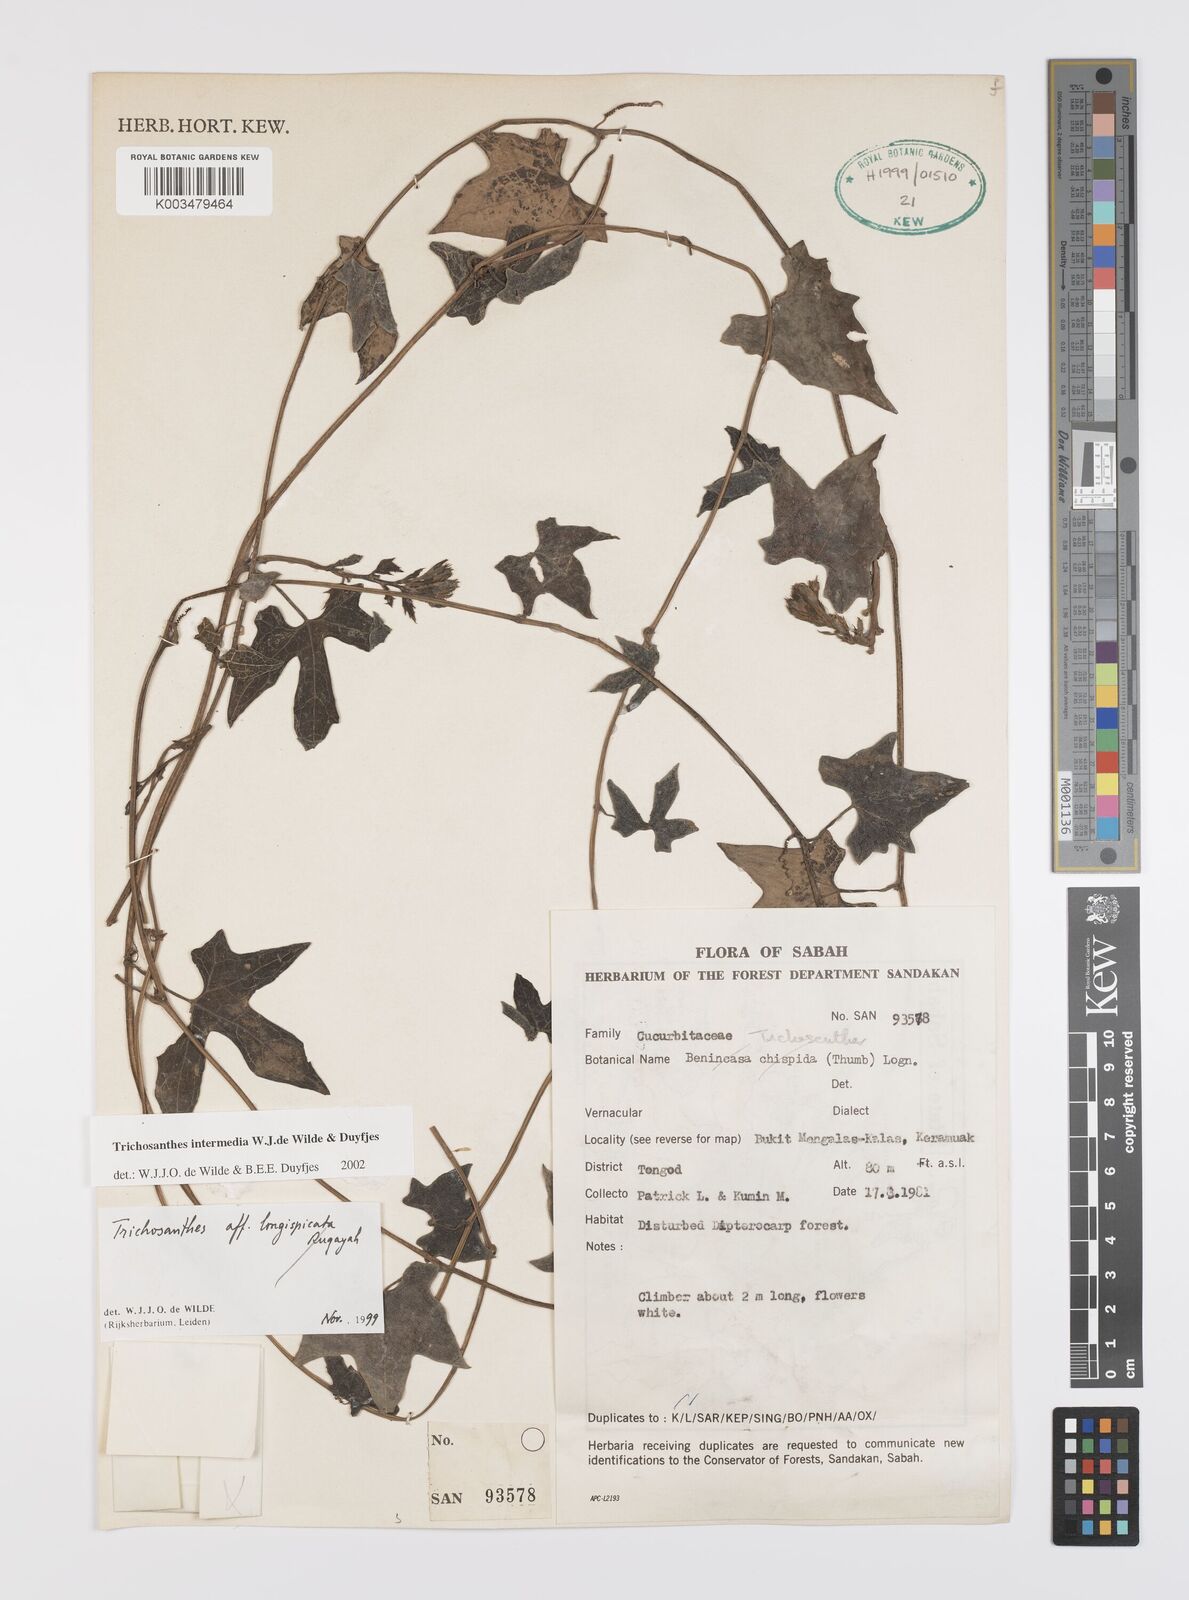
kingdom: Plantae
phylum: Tracheophyta
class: Magnoliopsida
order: Cucurbitales
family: Cucurbitaceae
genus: Trichosanthes
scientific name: Trichosanthes intermedia
